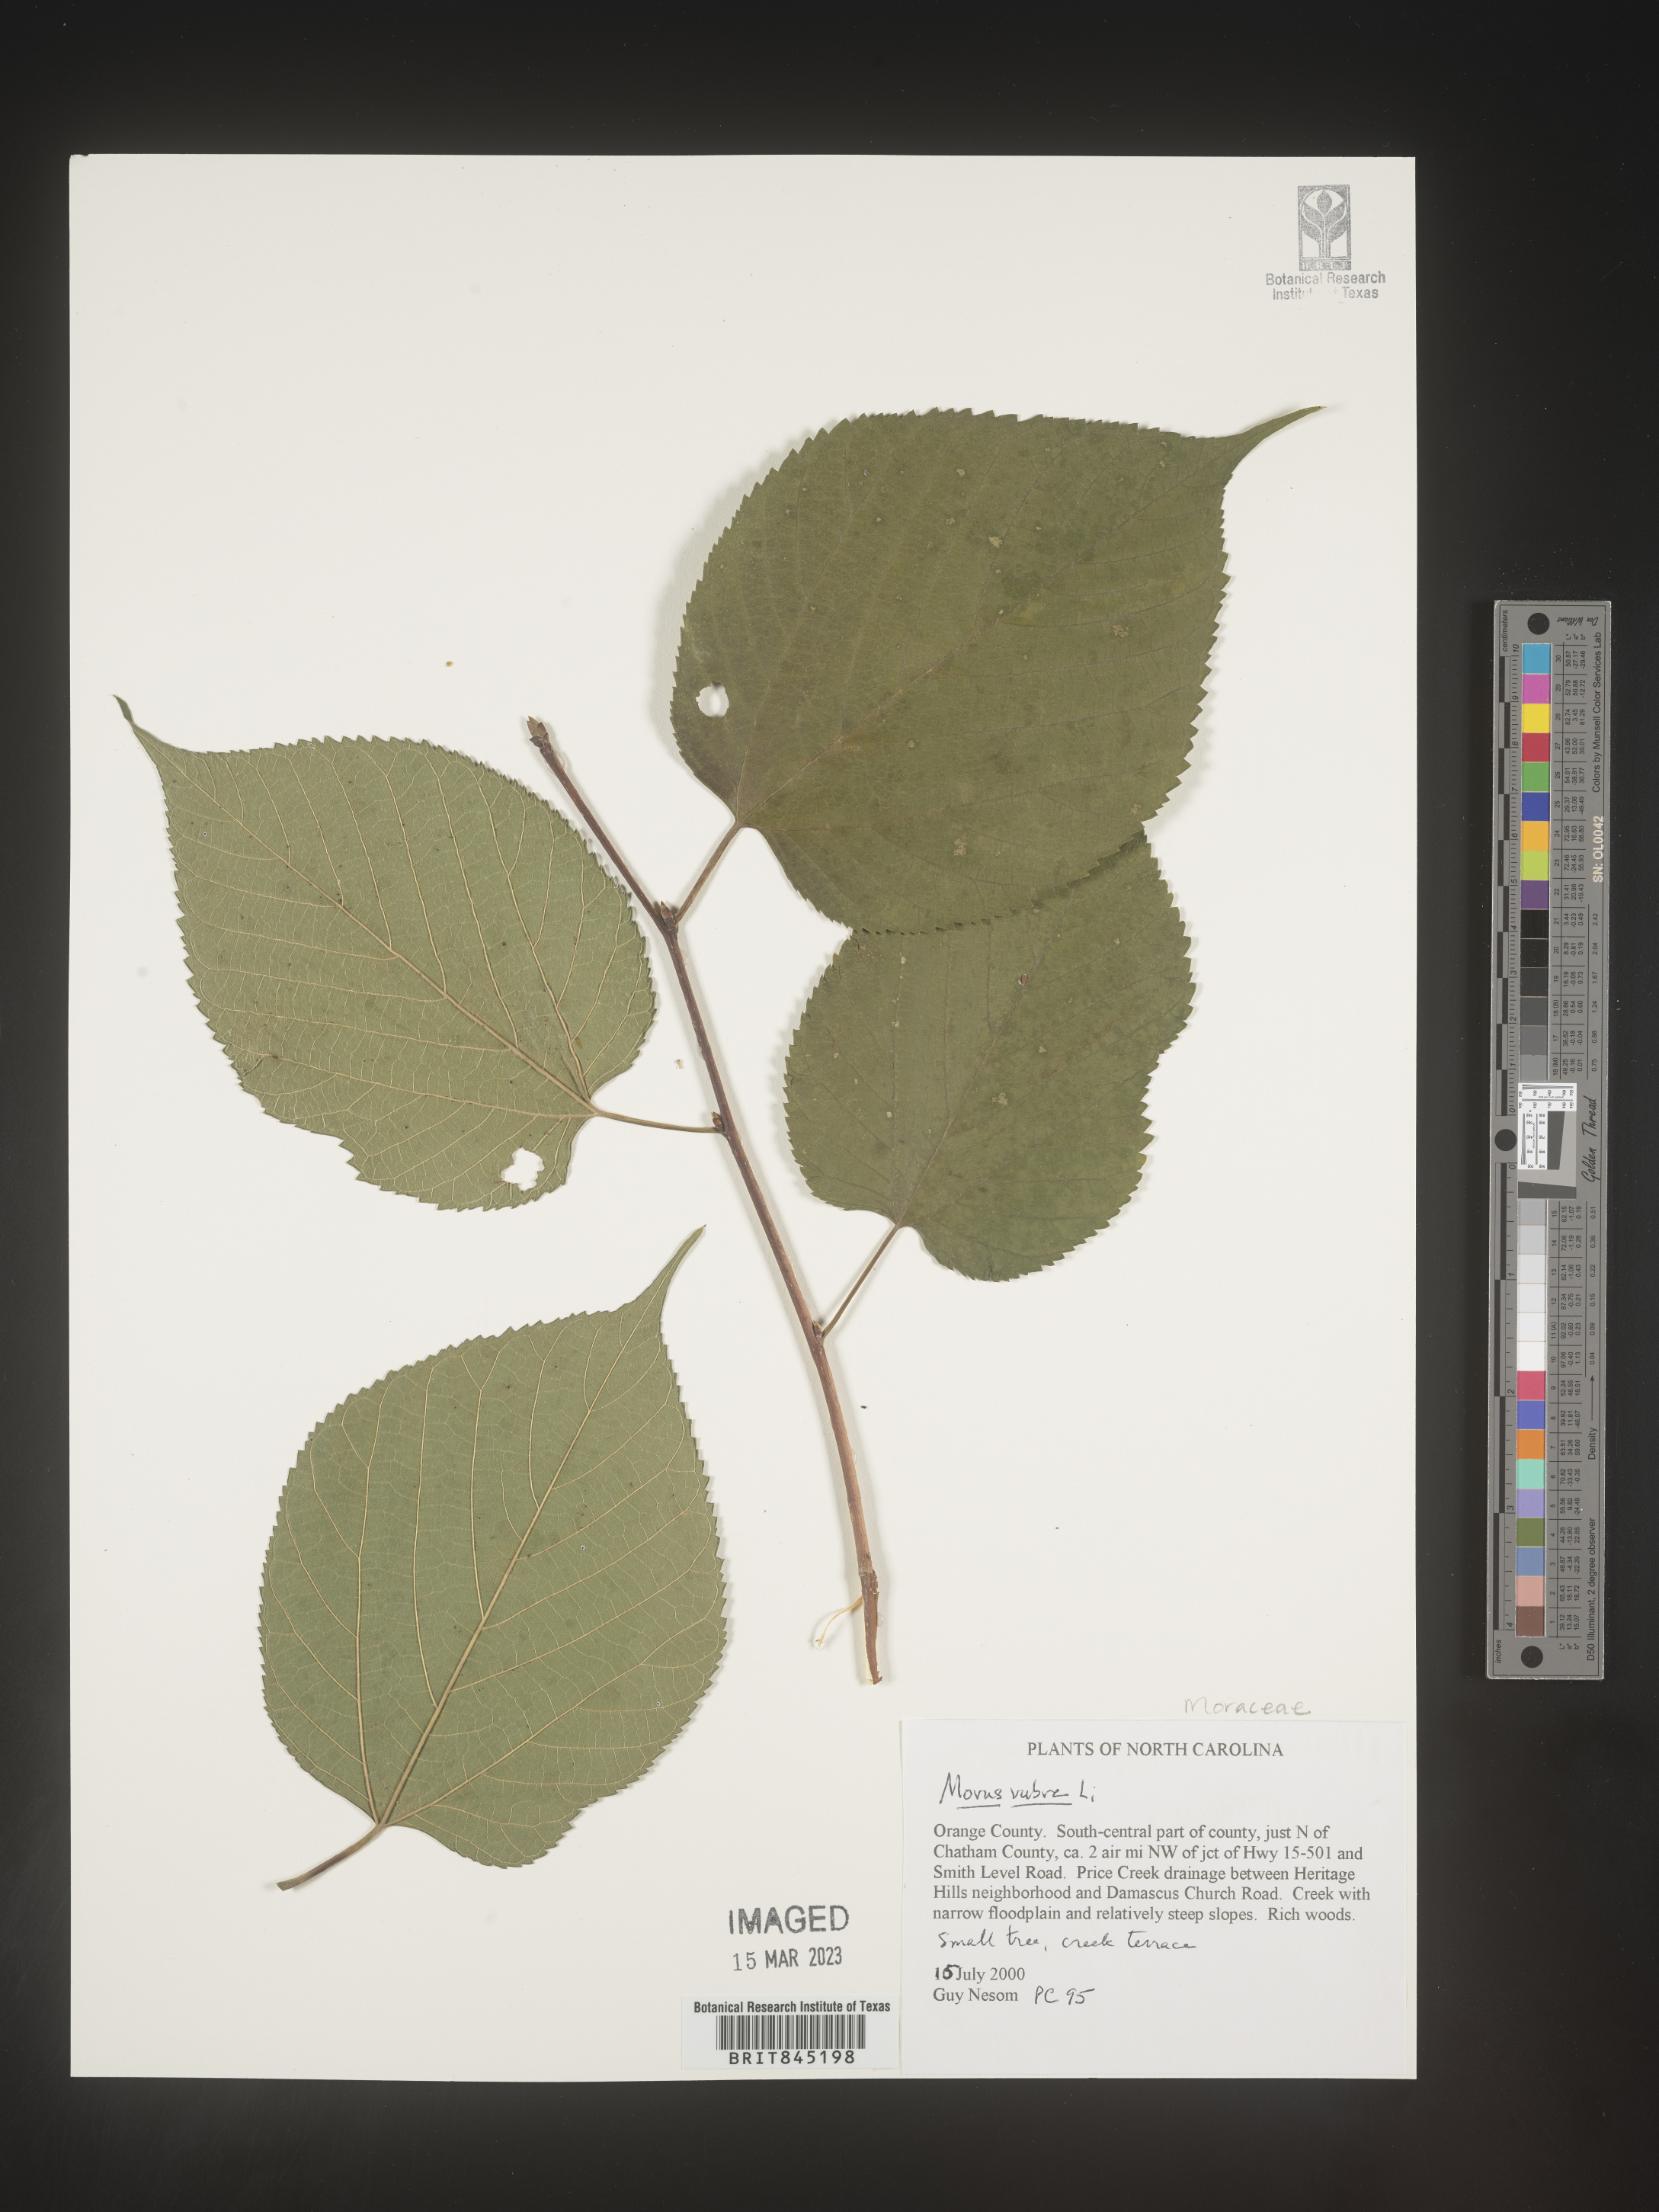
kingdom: Plantae
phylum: Tracheophyta
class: Magnoliopsida
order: Rosales
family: Moraceae
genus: Morus
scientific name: Morus rubra
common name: Red mulberry
